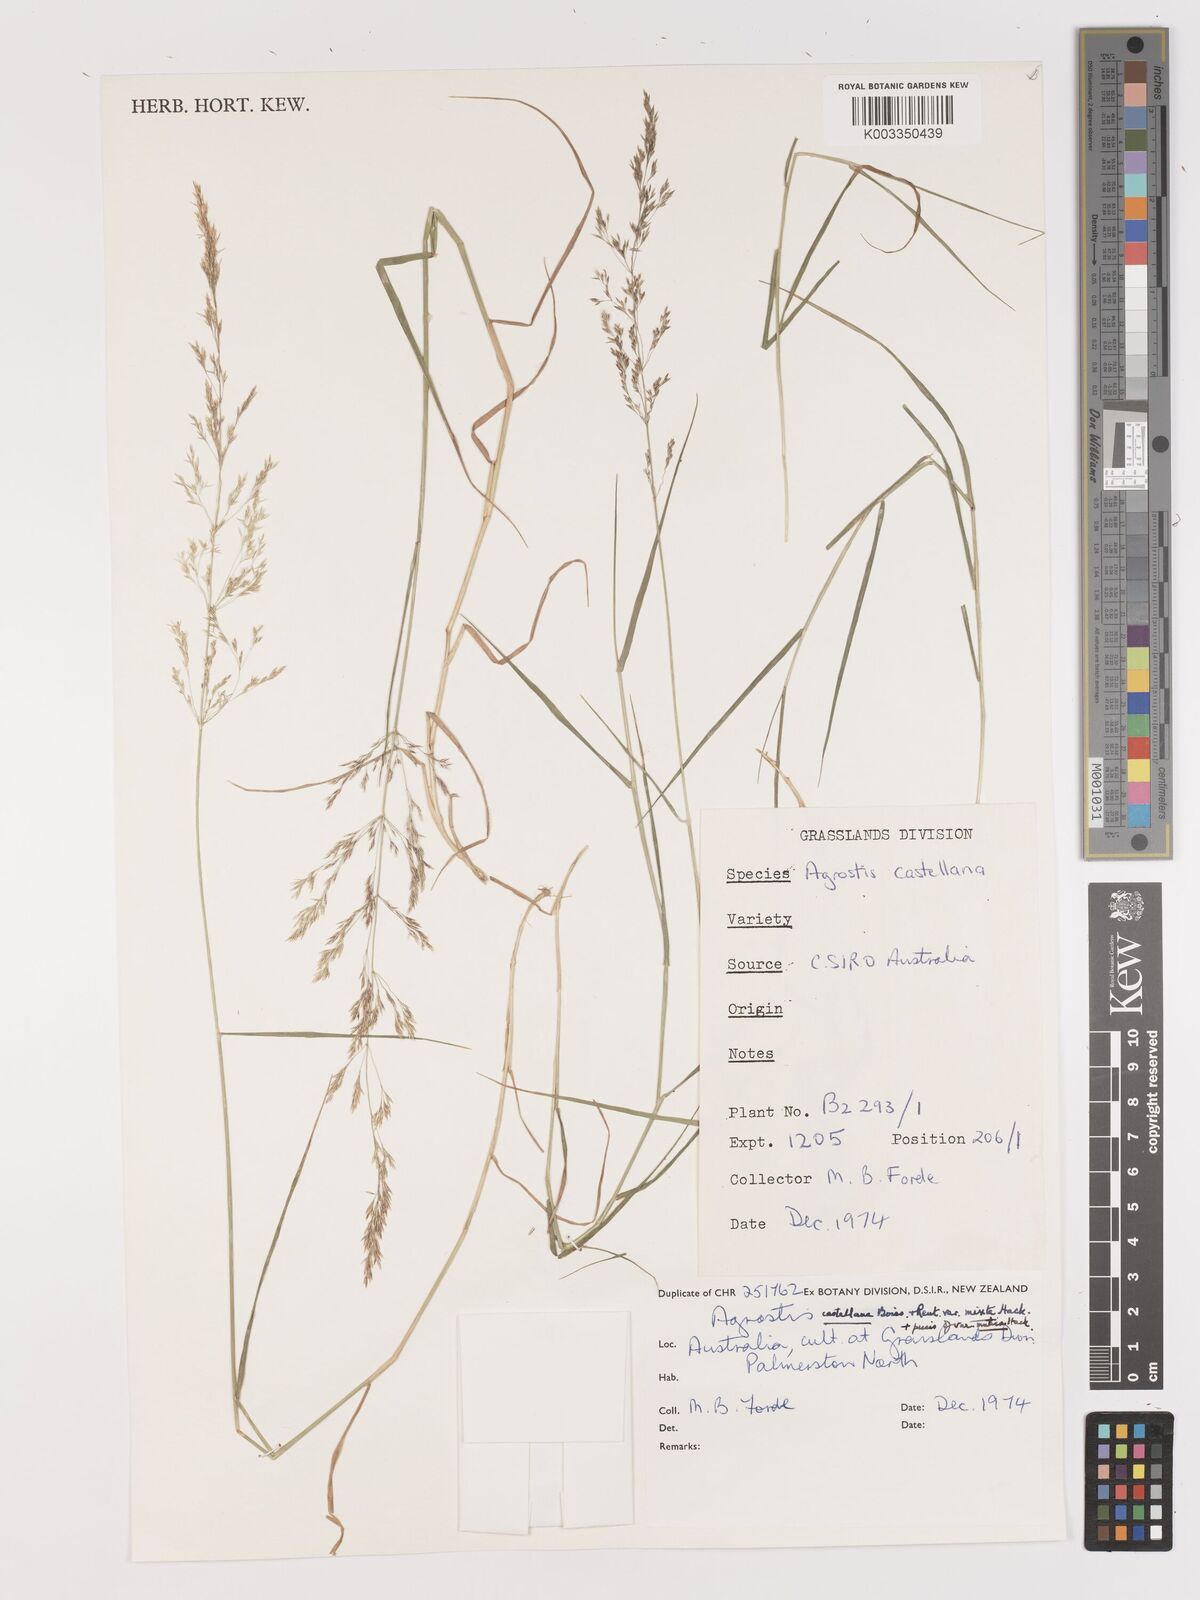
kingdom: Plantae
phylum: Tracheophyta
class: Liliopsida
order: Poales
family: Poaceae
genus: Agrostis
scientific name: Agrostis castellana
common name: Highland bent
